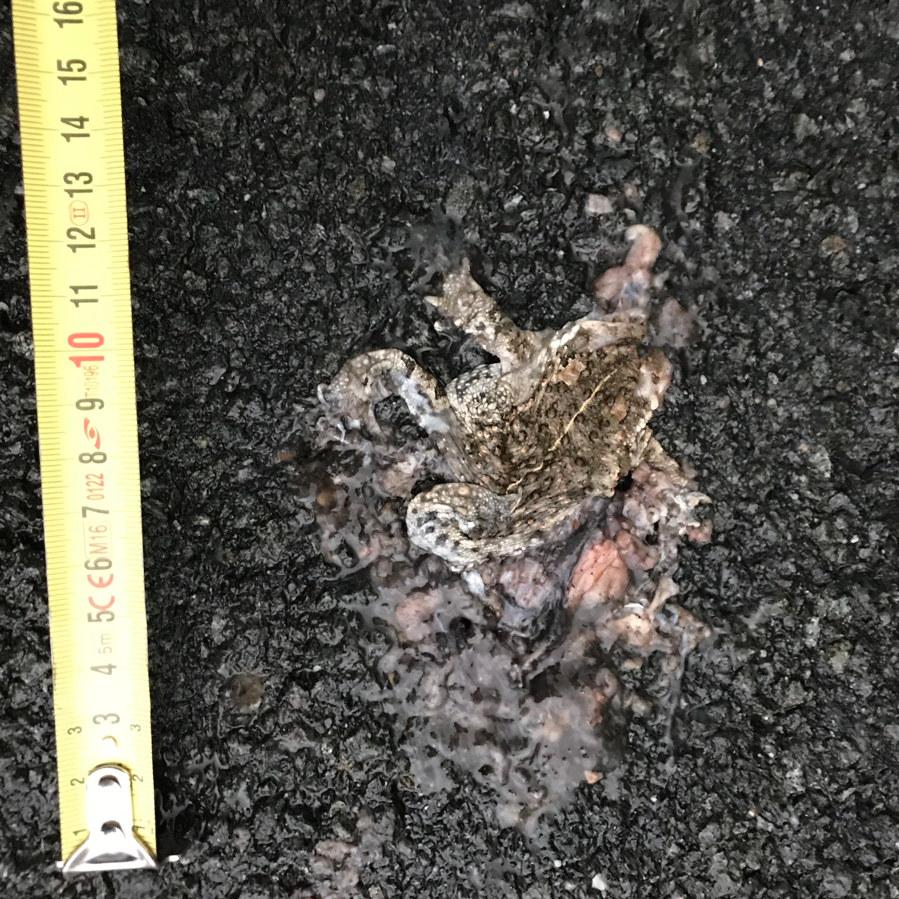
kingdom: Animalia
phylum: Chordata
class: Amphibia
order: Anura
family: Bufonidae
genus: Epidalea
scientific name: Epidalea calamita
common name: Natterjack toad
